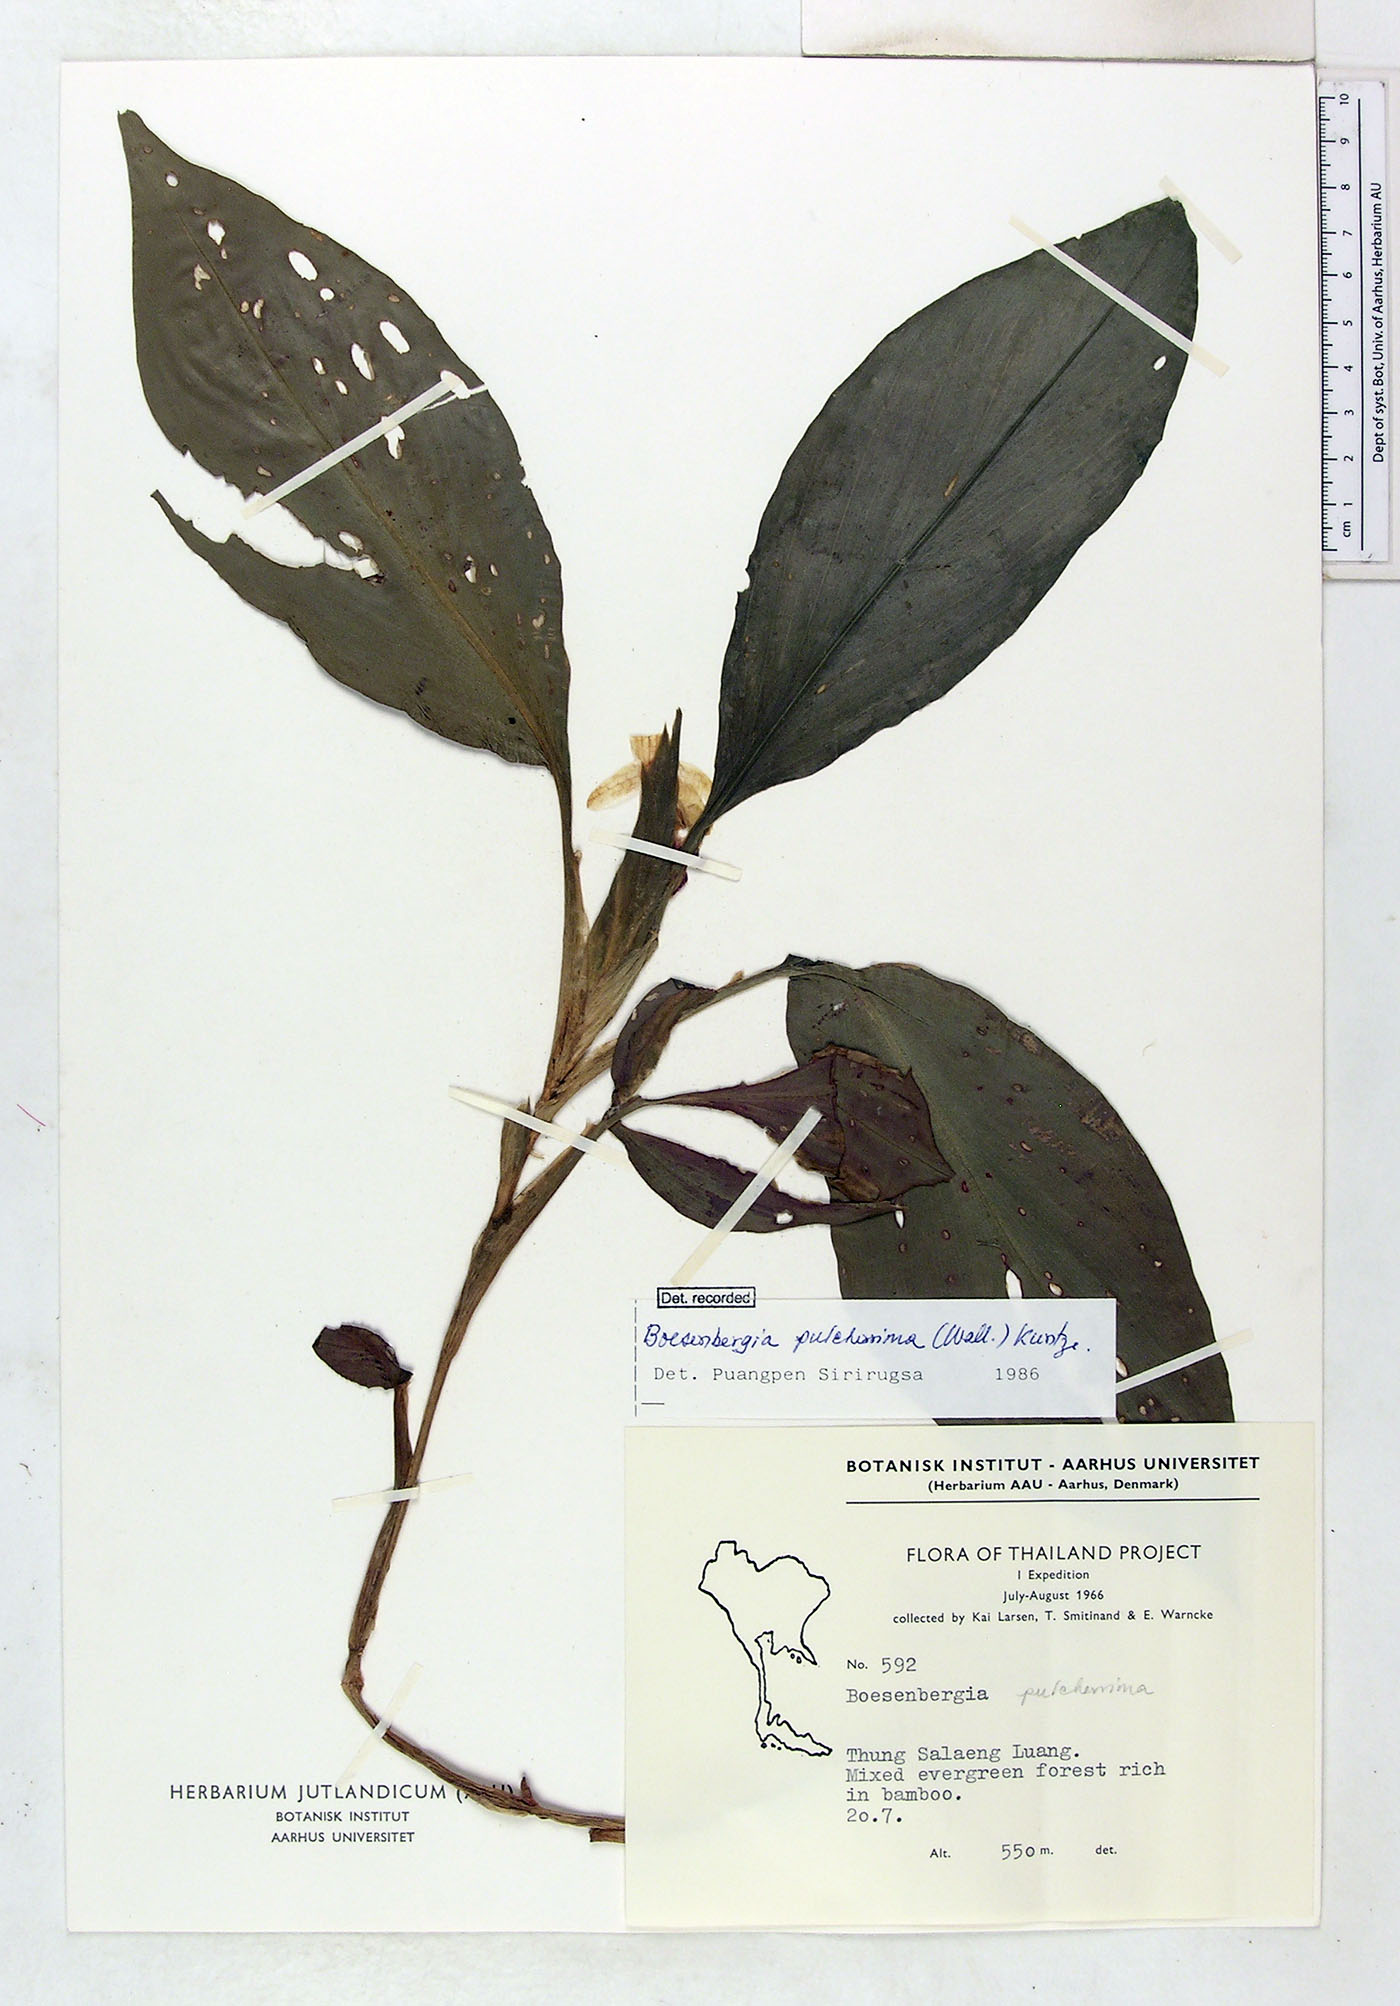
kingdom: Plantae
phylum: Tracheophyta
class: Liliopsida
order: Zingiberales
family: Zingiberaceae
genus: Boesenbergia
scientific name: Boesenbergia pulcherrima
